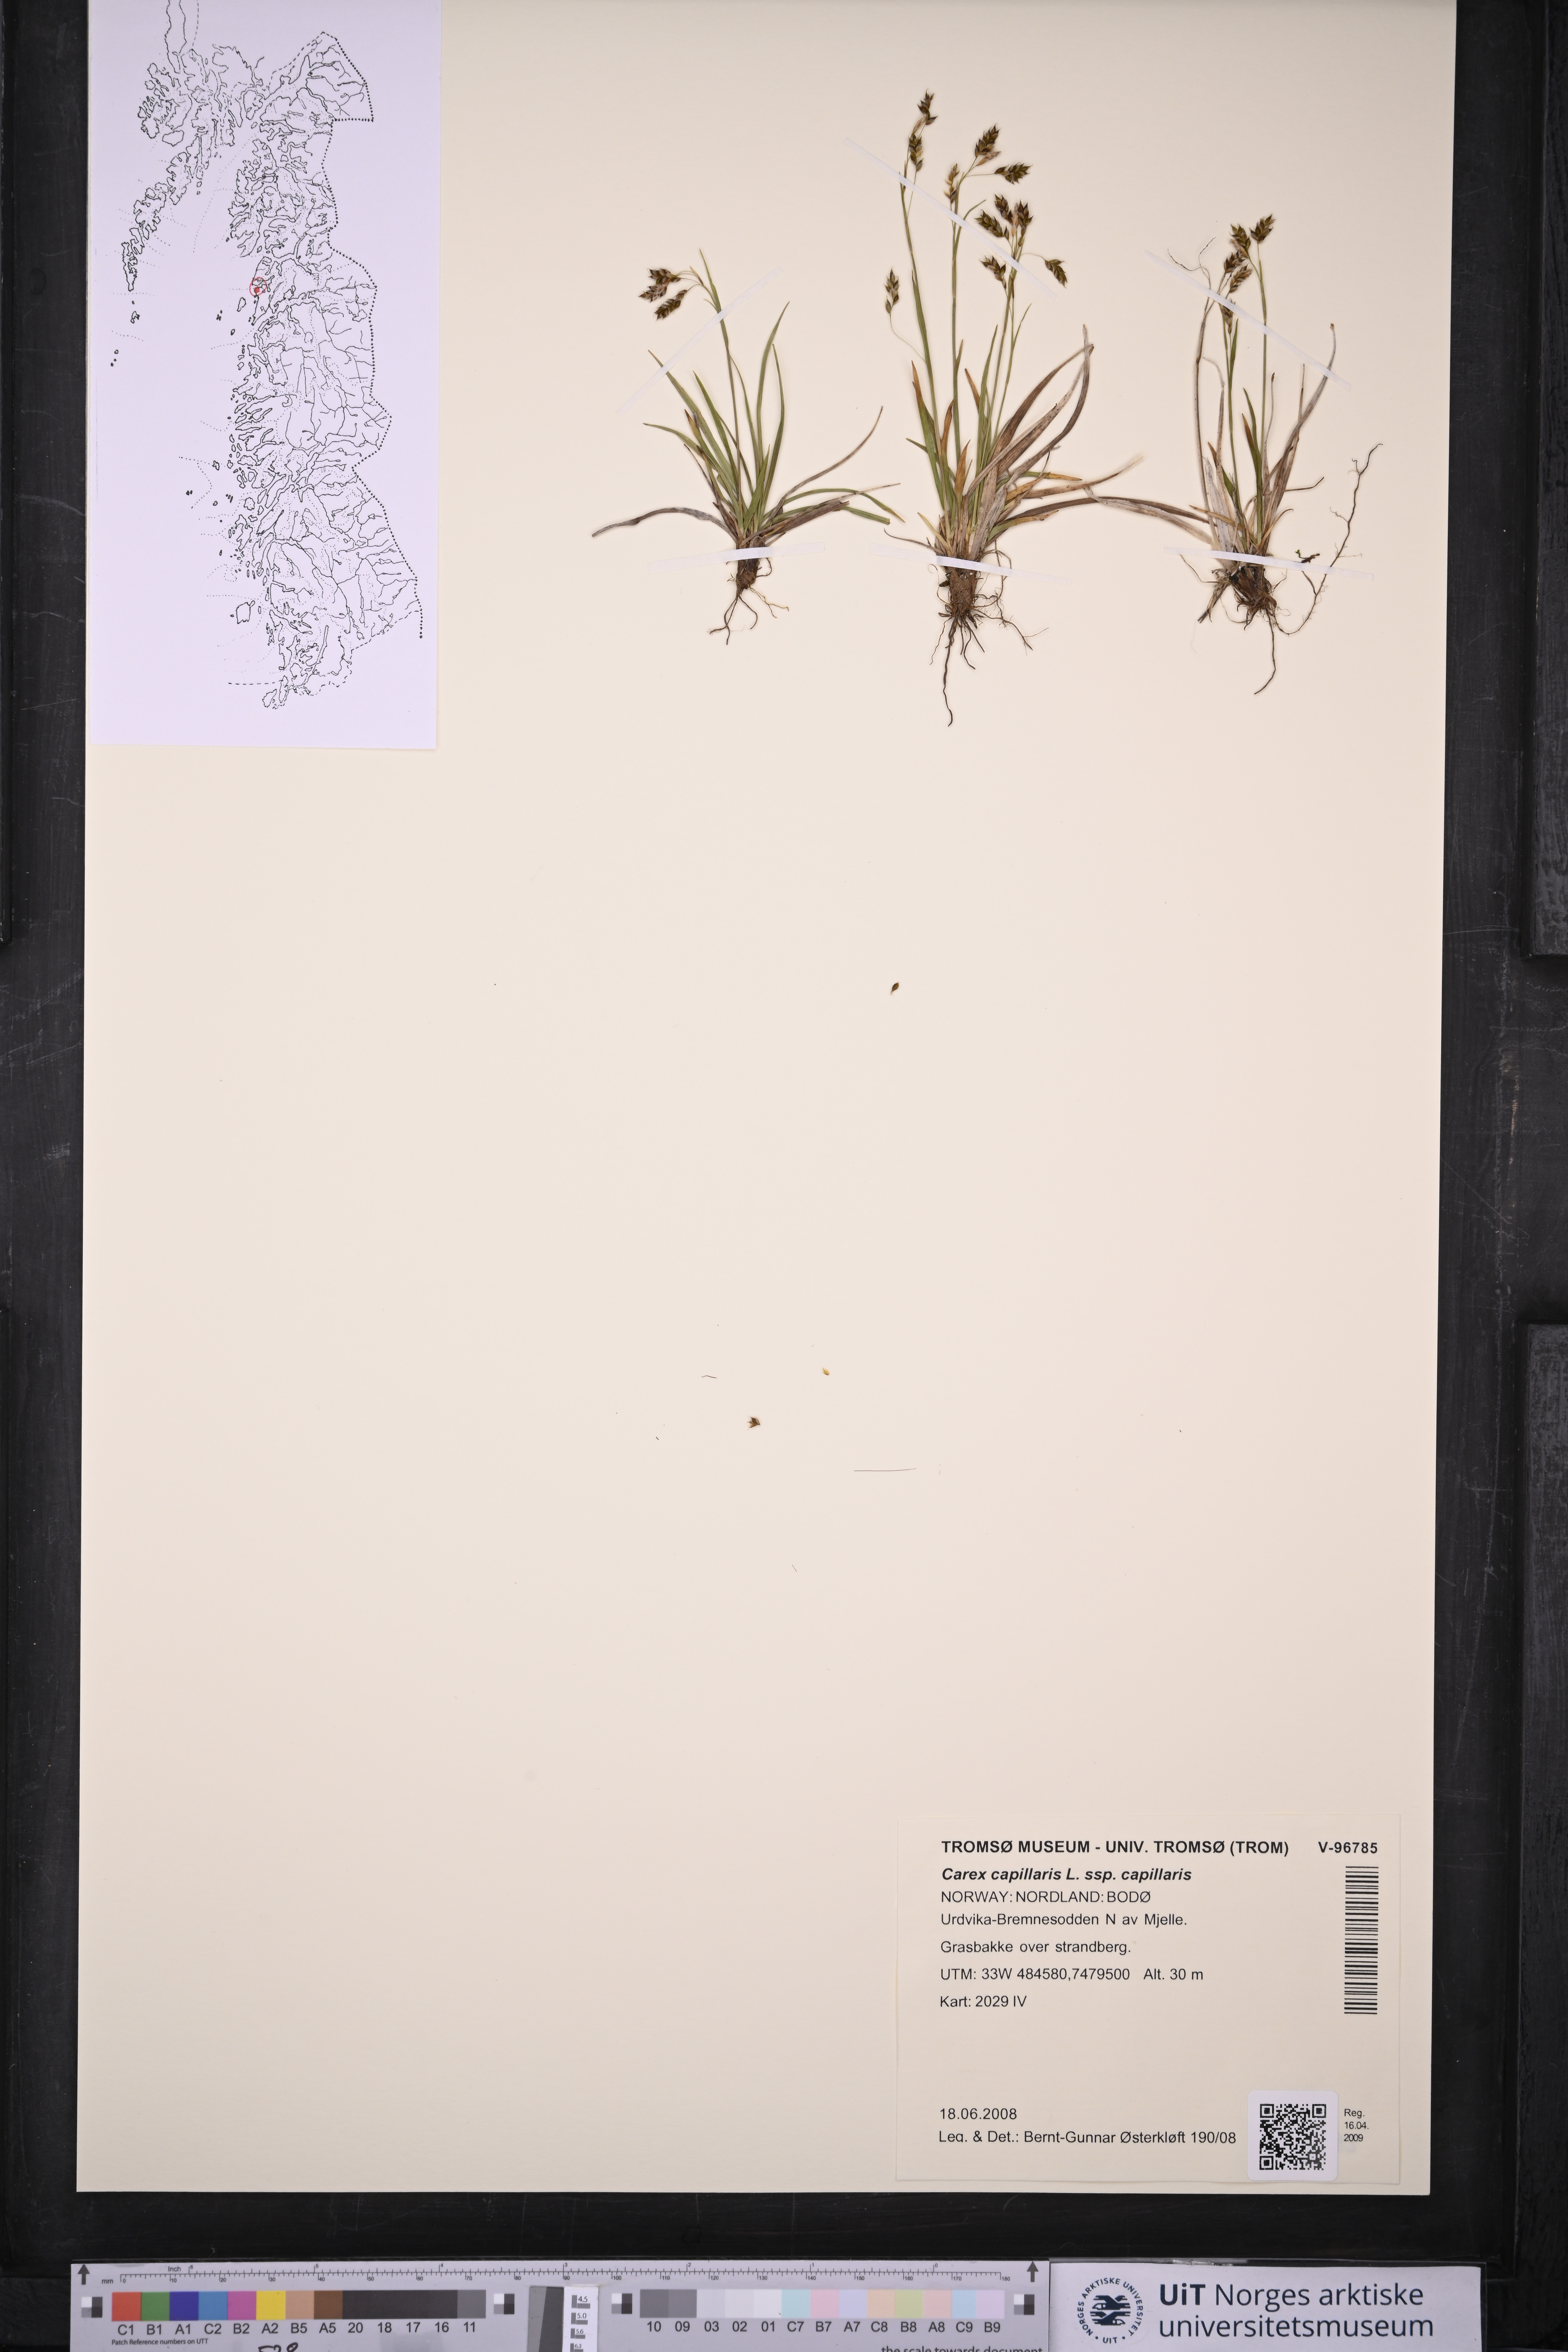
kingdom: Plantae
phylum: Tracheophyta
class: Liliopsida
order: Poales
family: Cyperaceae
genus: Carex
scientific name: Carex capillaris
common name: Hair sedge
